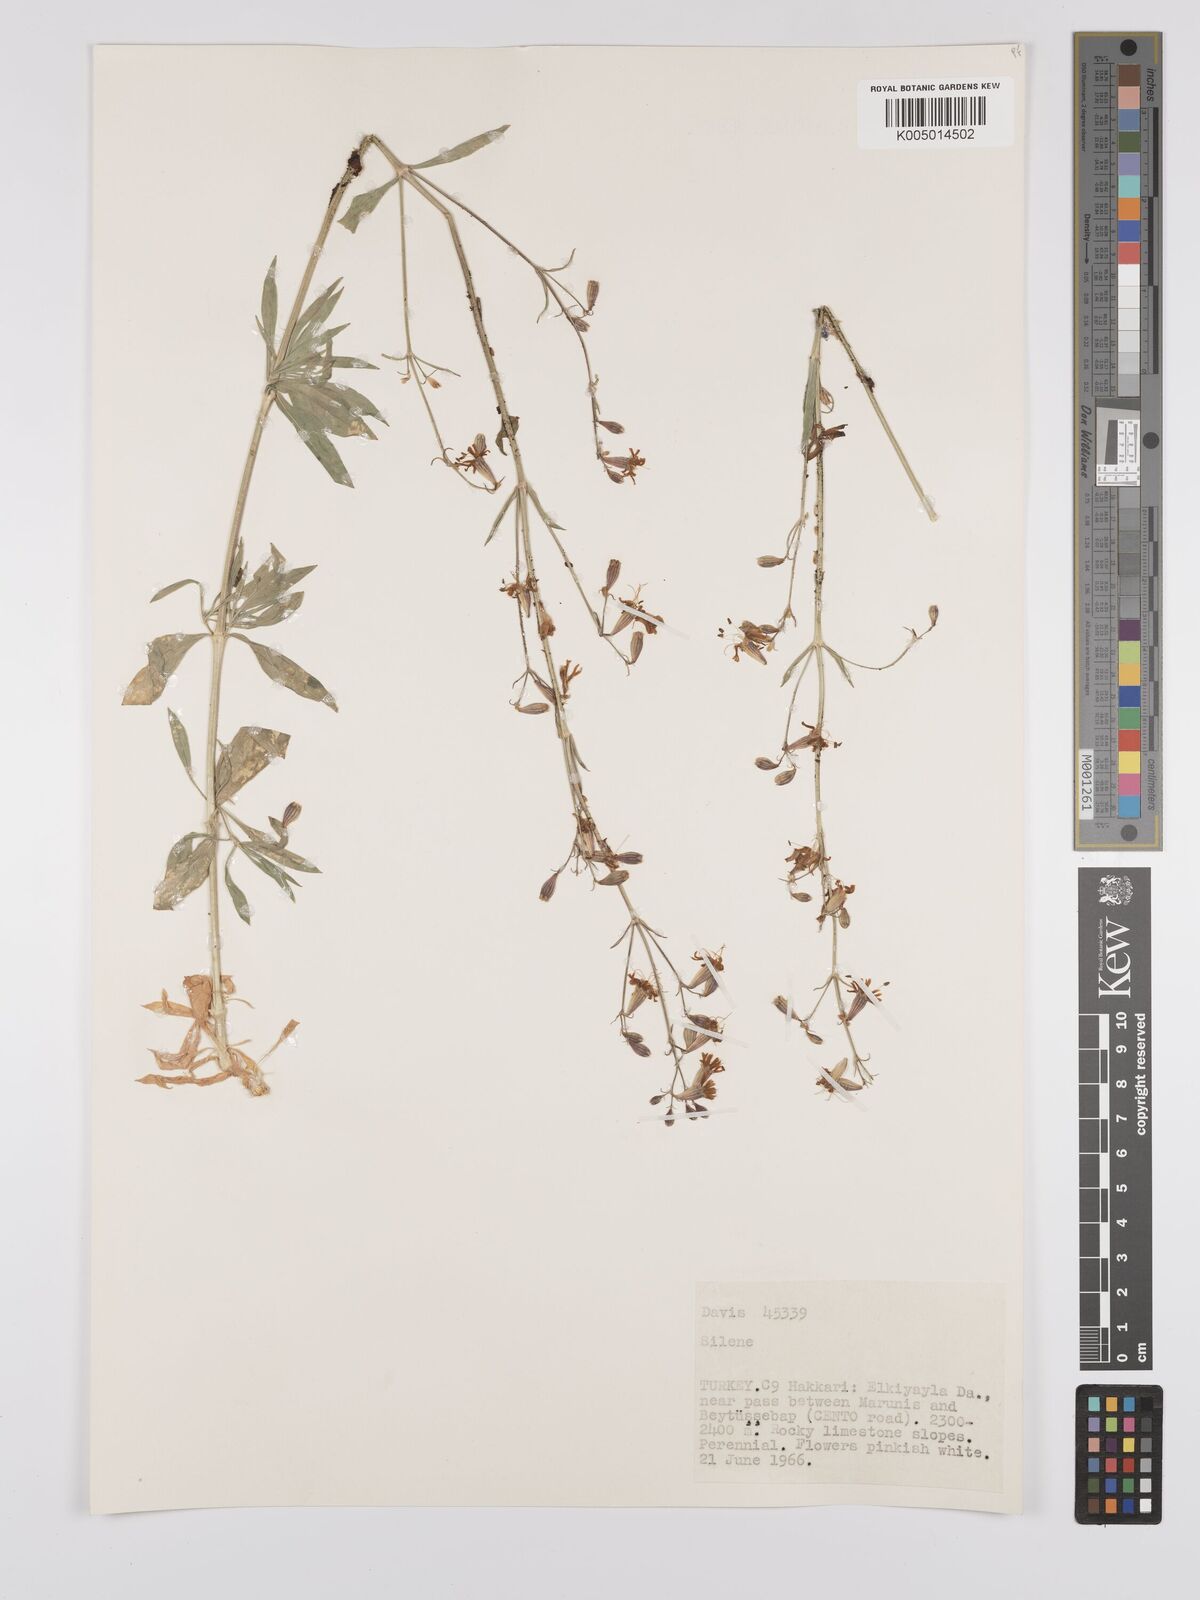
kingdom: Plantae
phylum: Tracheophyta
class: Magnoliopsida
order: Caryophyllales
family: Caryophyllaceae
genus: Silene
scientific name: Silene
